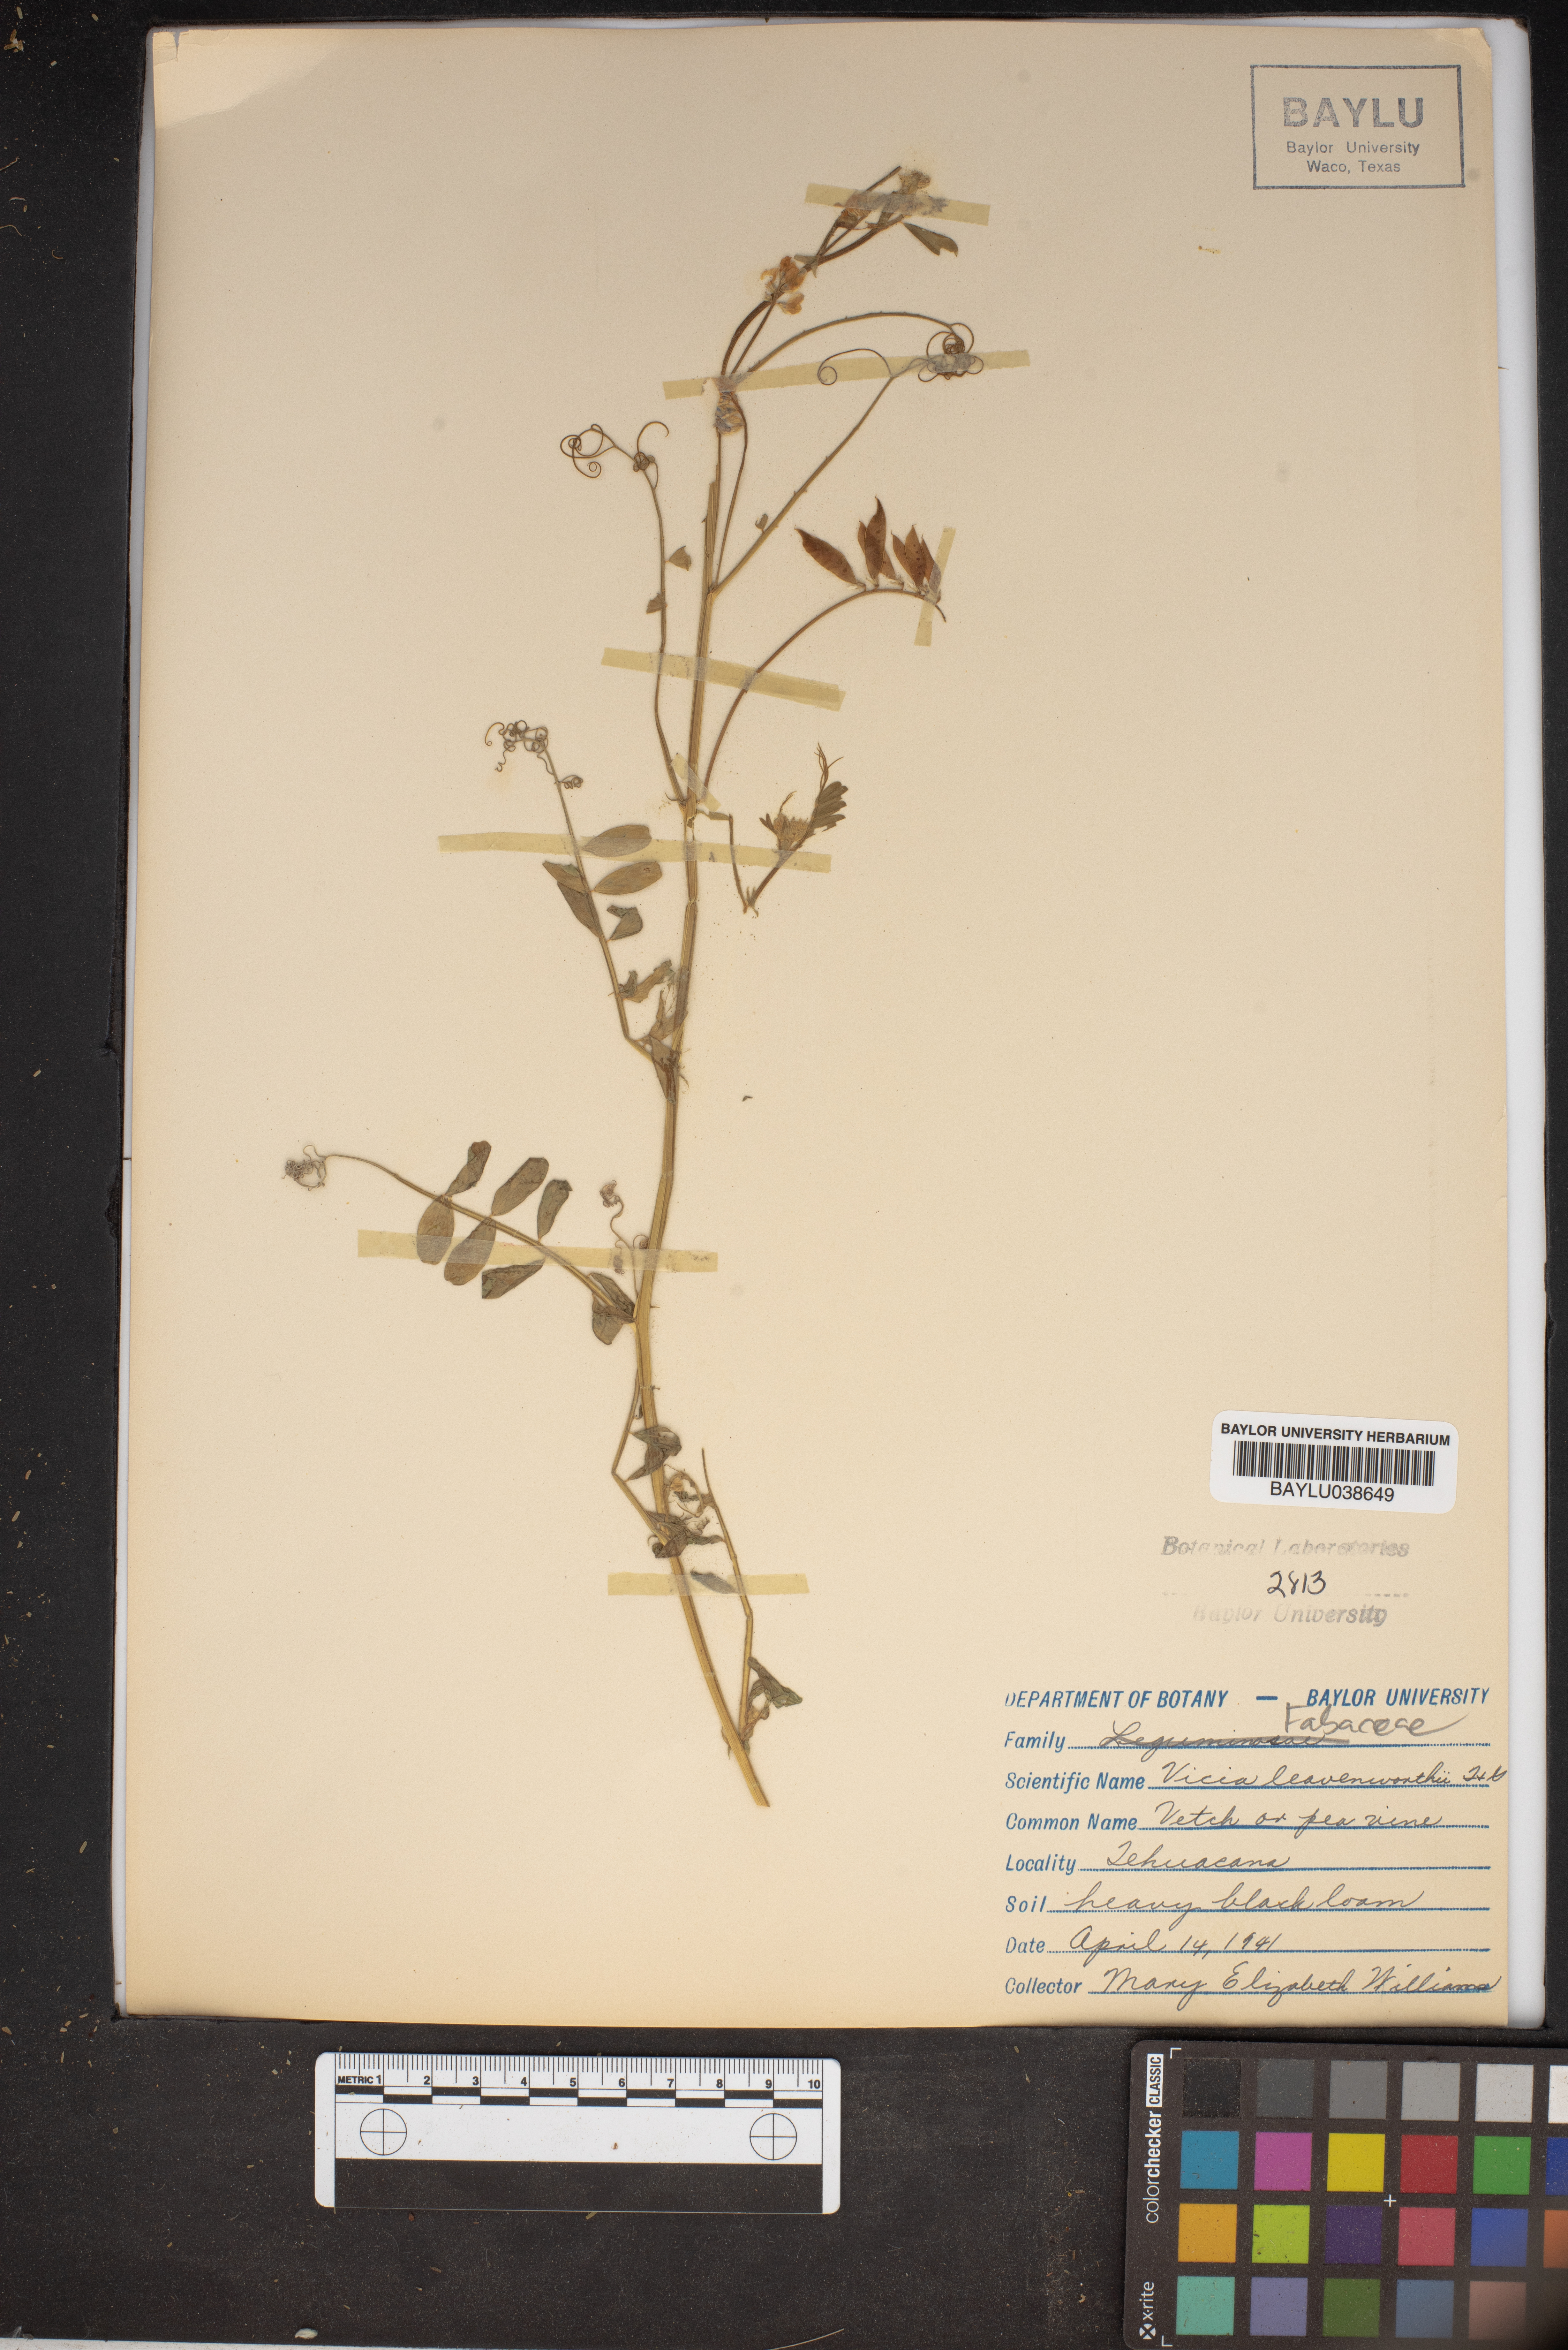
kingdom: Plantae
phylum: Tracheophyta
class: Magnoliopsida
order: Fabales
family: Fabaceae
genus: Vicia
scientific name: Vicia ludoviciana
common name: Louisiana vetch
